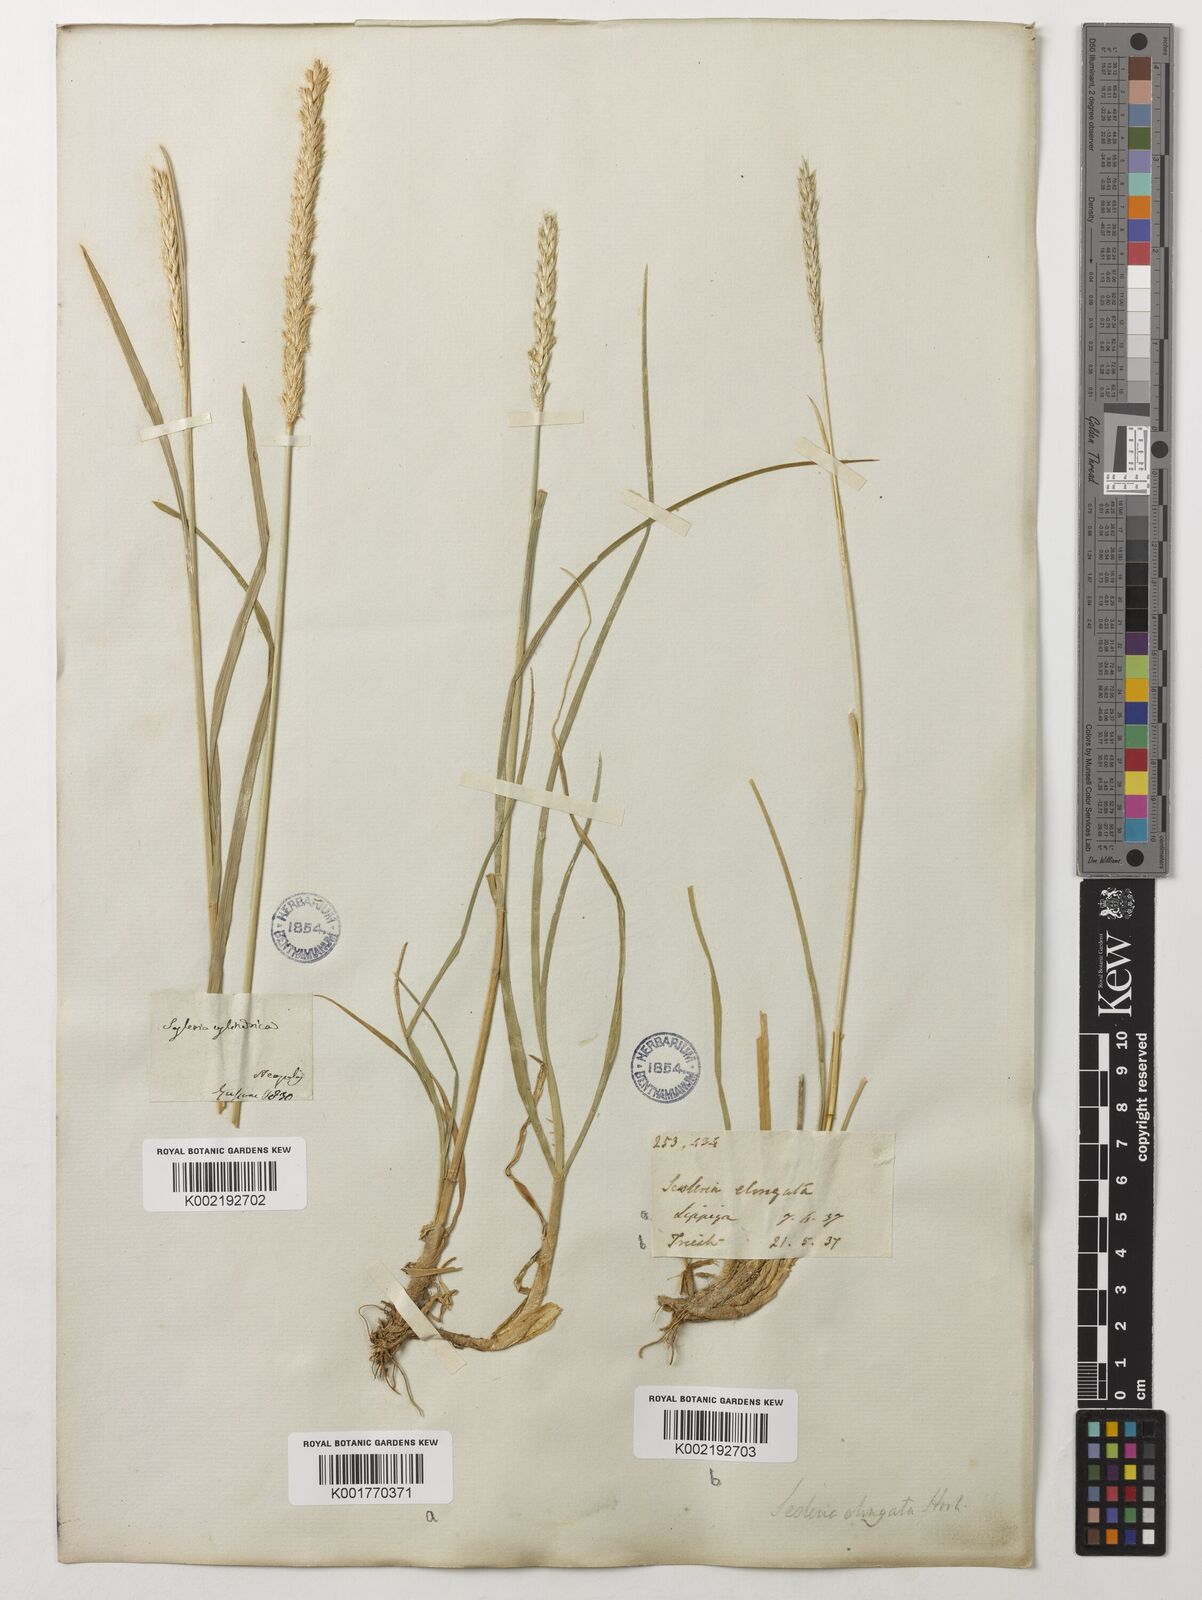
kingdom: Plantae
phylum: Tracheophyta
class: Liliopsida
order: Poales
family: Poaceae
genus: Sesleria
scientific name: Sesleria autumnalis
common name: Autumn moor grass
